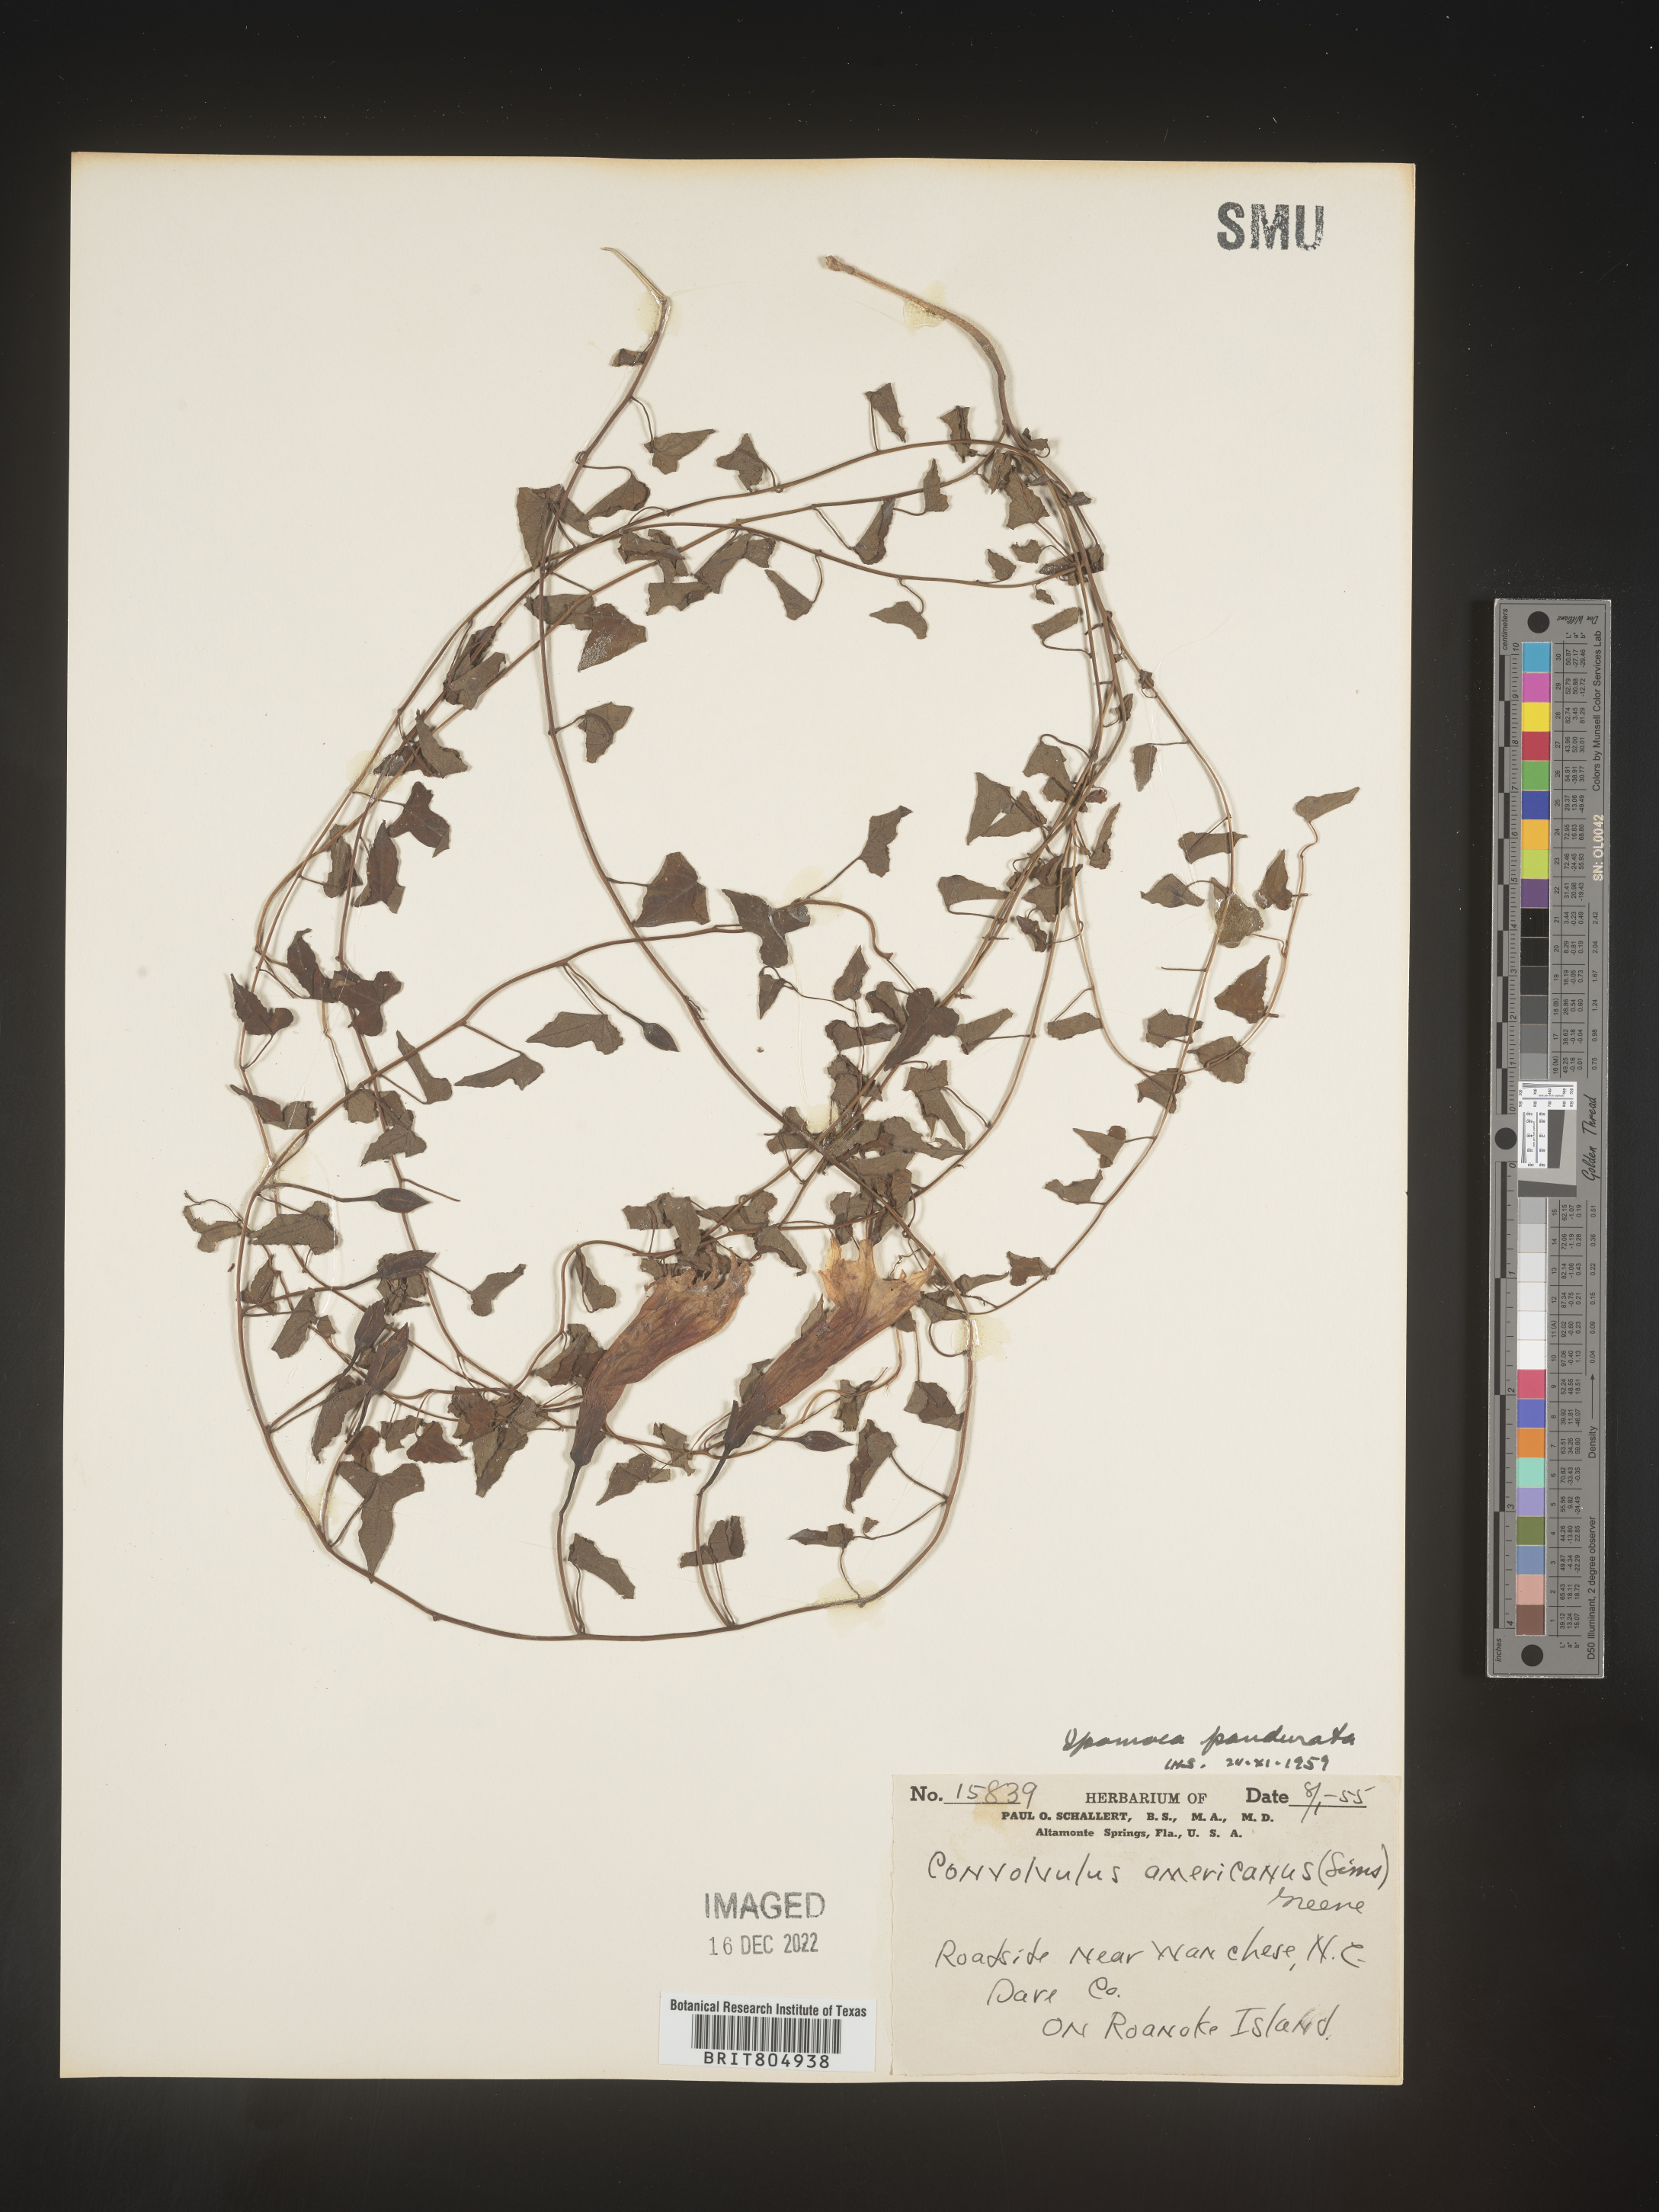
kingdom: Plantae
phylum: Tracheophyta
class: Magnoliopsida
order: Solanales
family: Convolvulaceae
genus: Ipomoea
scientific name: Ipomoea pandurata
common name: Man-of-the-earth
